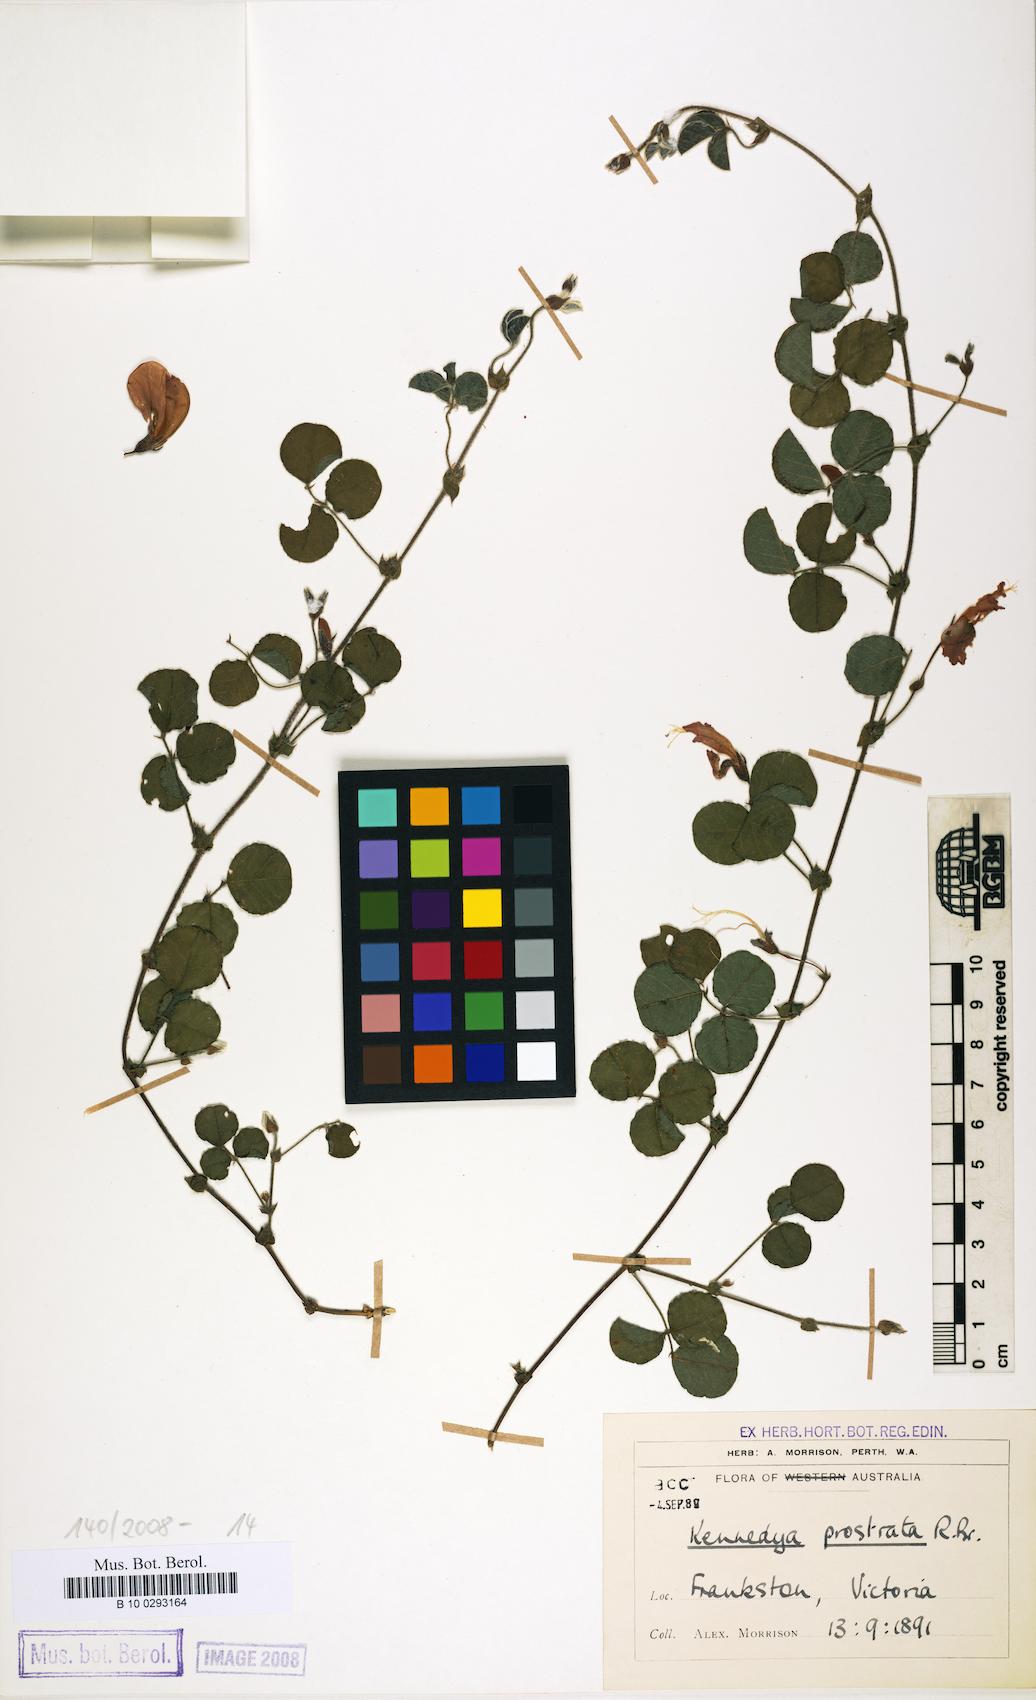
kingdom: Plantae
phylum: Tracheophyta
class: Magnoliopsida
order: Fabales
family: Fabaceae
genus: Kennedia
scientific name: Kennedia prostrata
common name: Running-postman
